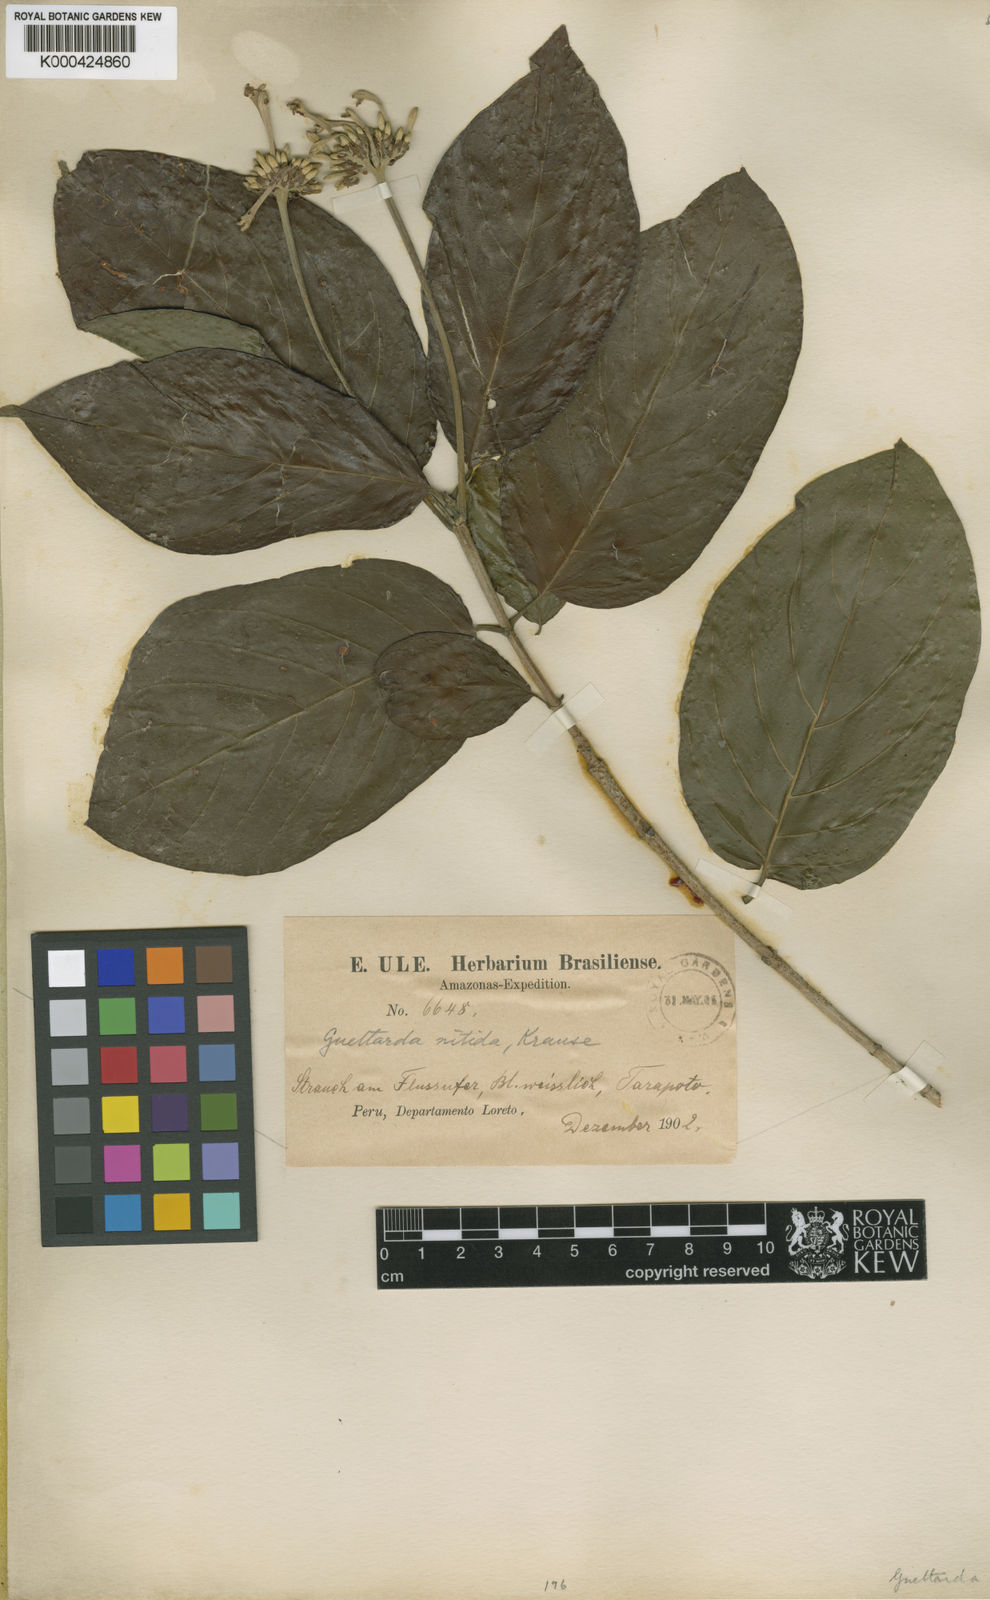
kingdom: Plantae
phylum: Tracheophyta
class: Magnoliopsida
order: Gentianales
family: Rubiaceae
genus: Guettarda
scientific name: Guettarda aromatica
